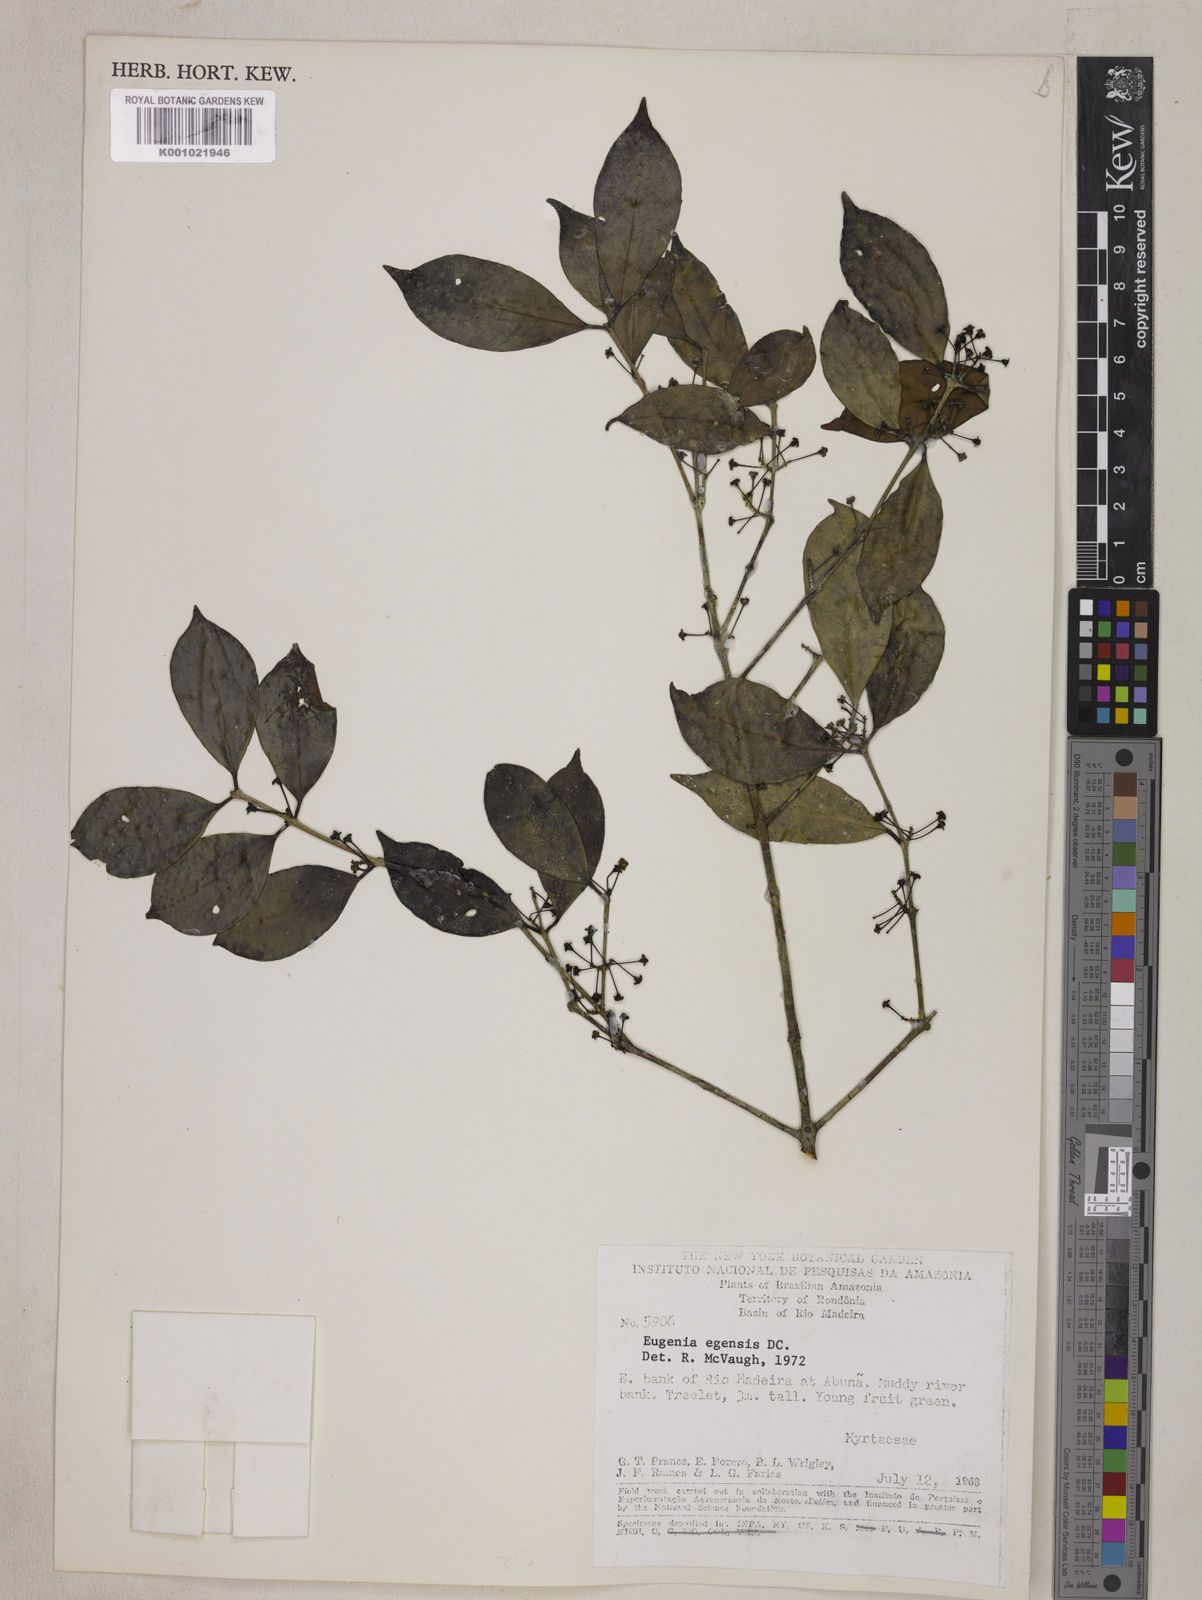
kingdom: Plantae
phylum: Tracheophyta
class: Magnoliopsida
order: Myrtales
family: Myrtaceae
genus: Eugenia
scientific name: Eugenia egensis
